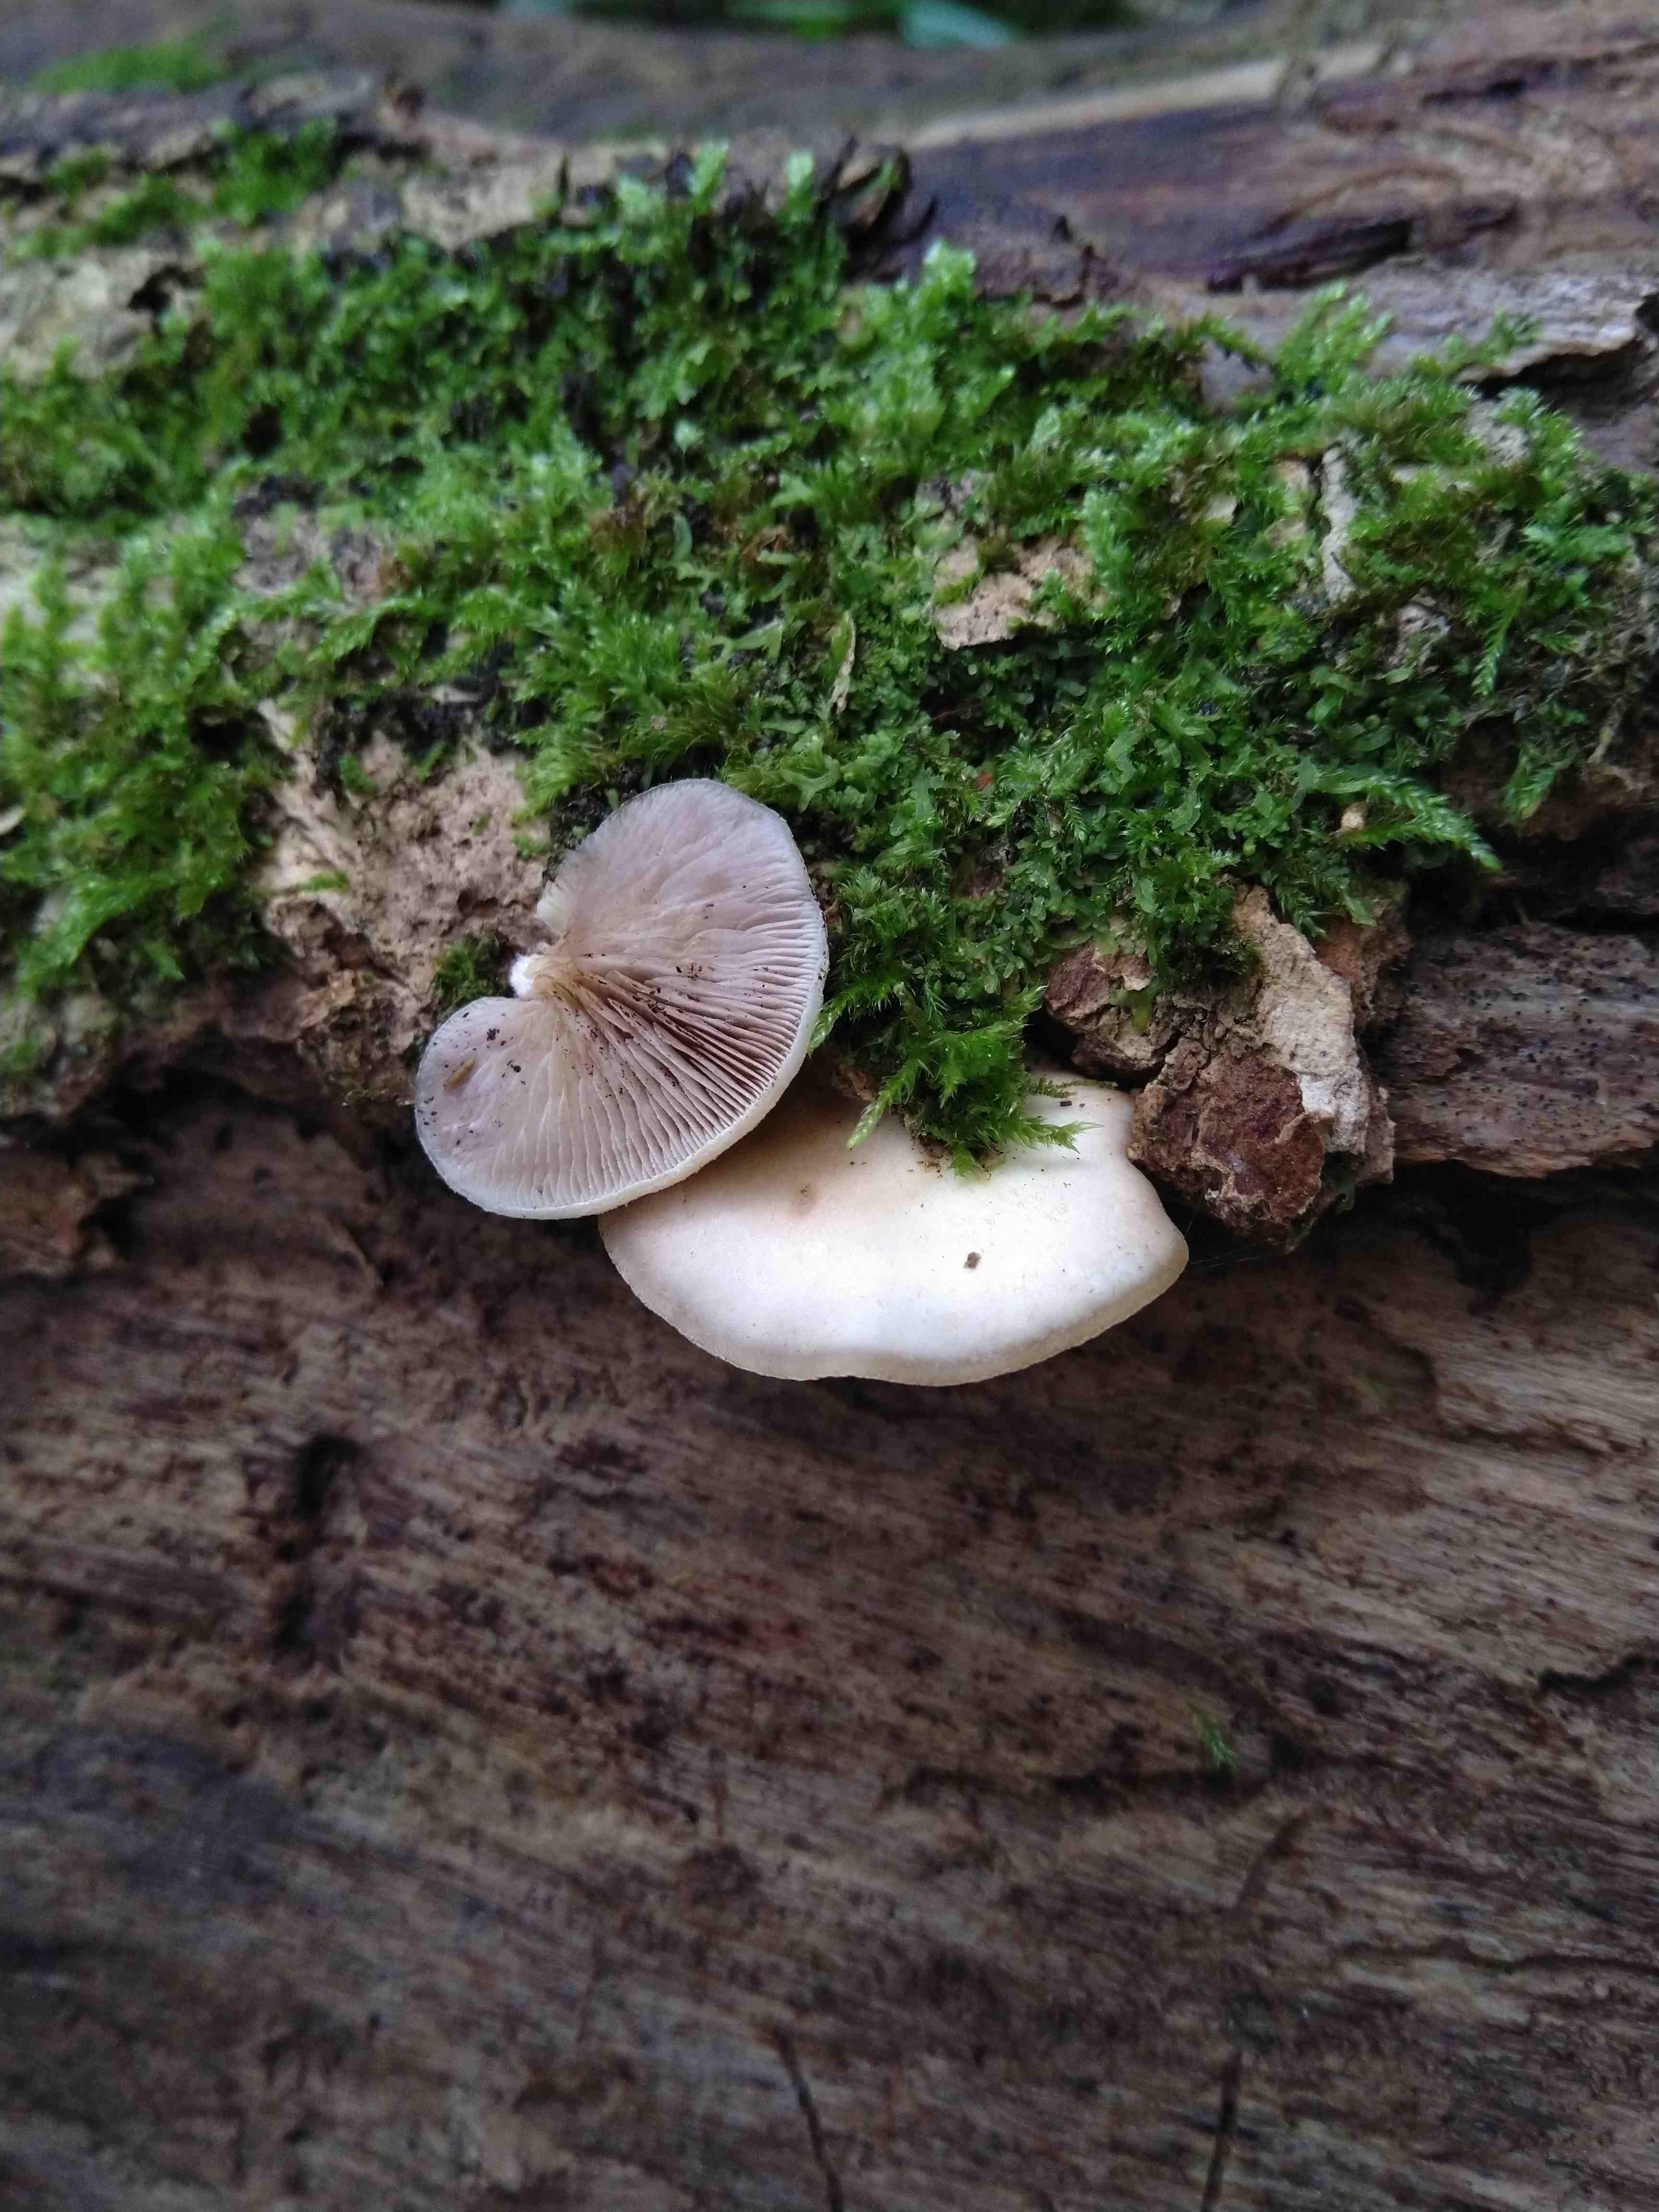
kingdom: Fungi
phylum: Basidiomycota
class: Agaricomycetes
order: Agaricales
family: Crepidotaceae
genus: Crepidotus
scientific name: Crepidotus mollis
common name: blød muslingesvamp
